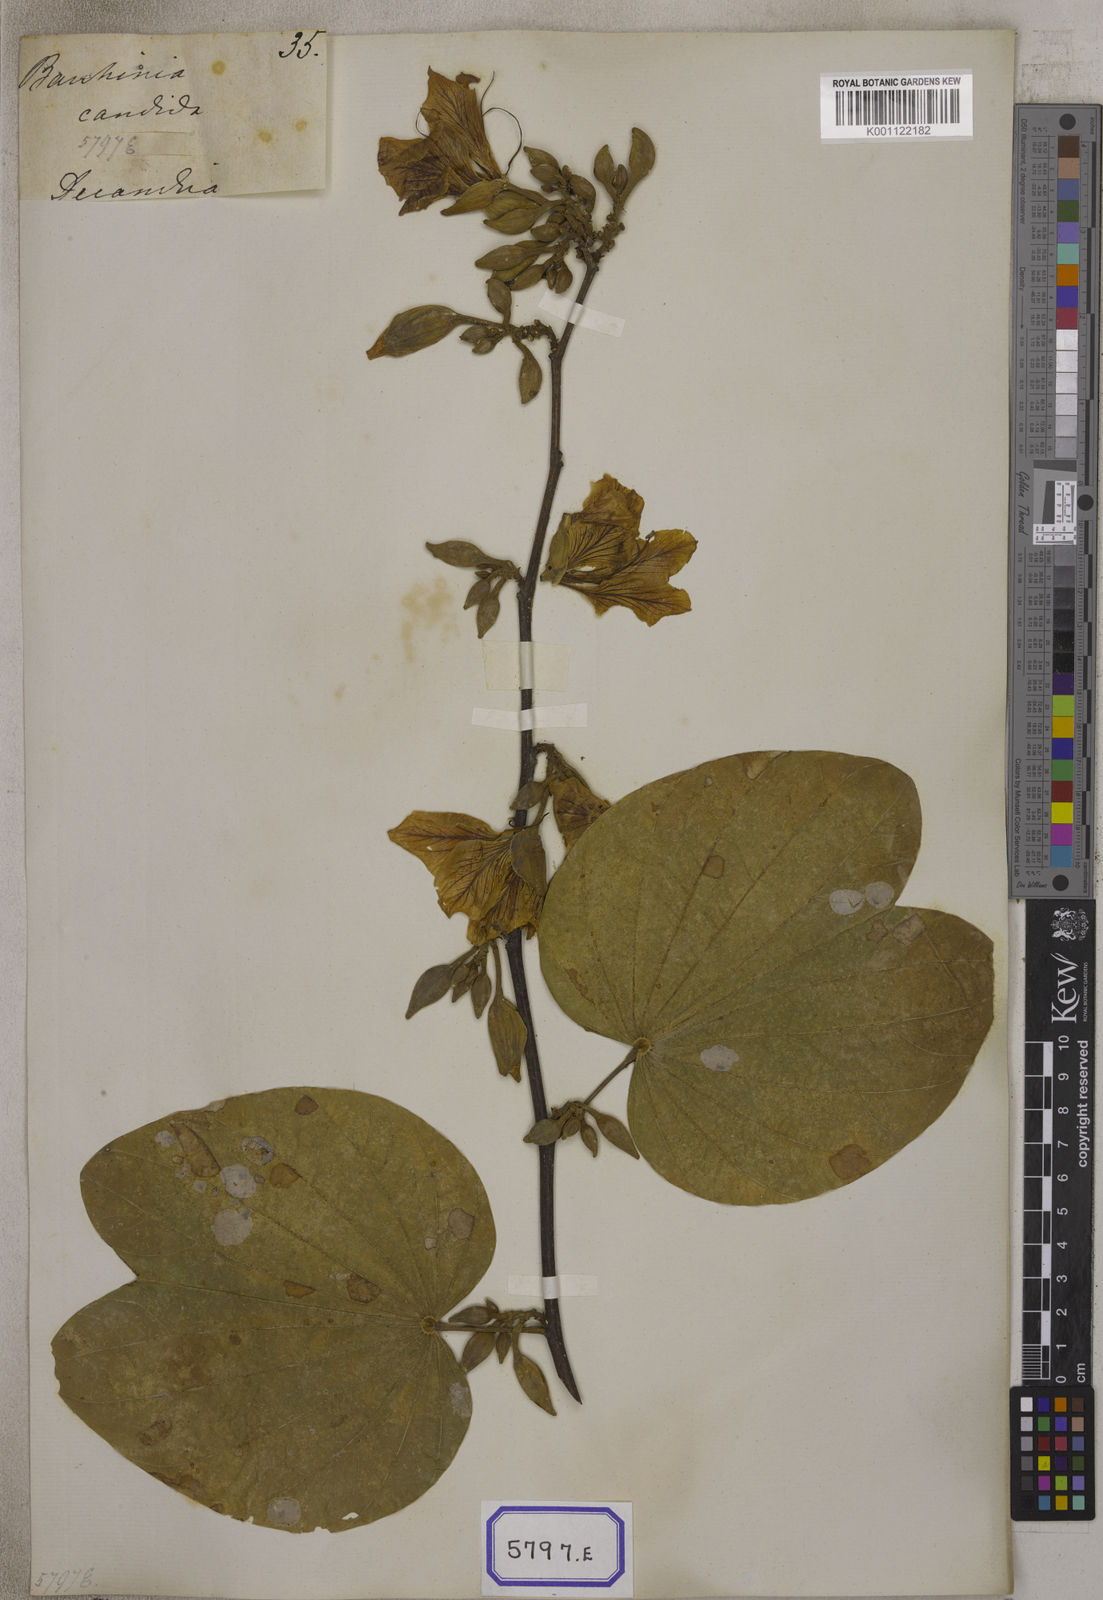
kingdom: Plantae
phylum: Tracheophyta
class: Magnoliopsida
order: Fabales
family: Fabaceae
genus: Bauhinia
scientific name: Bauhinia
